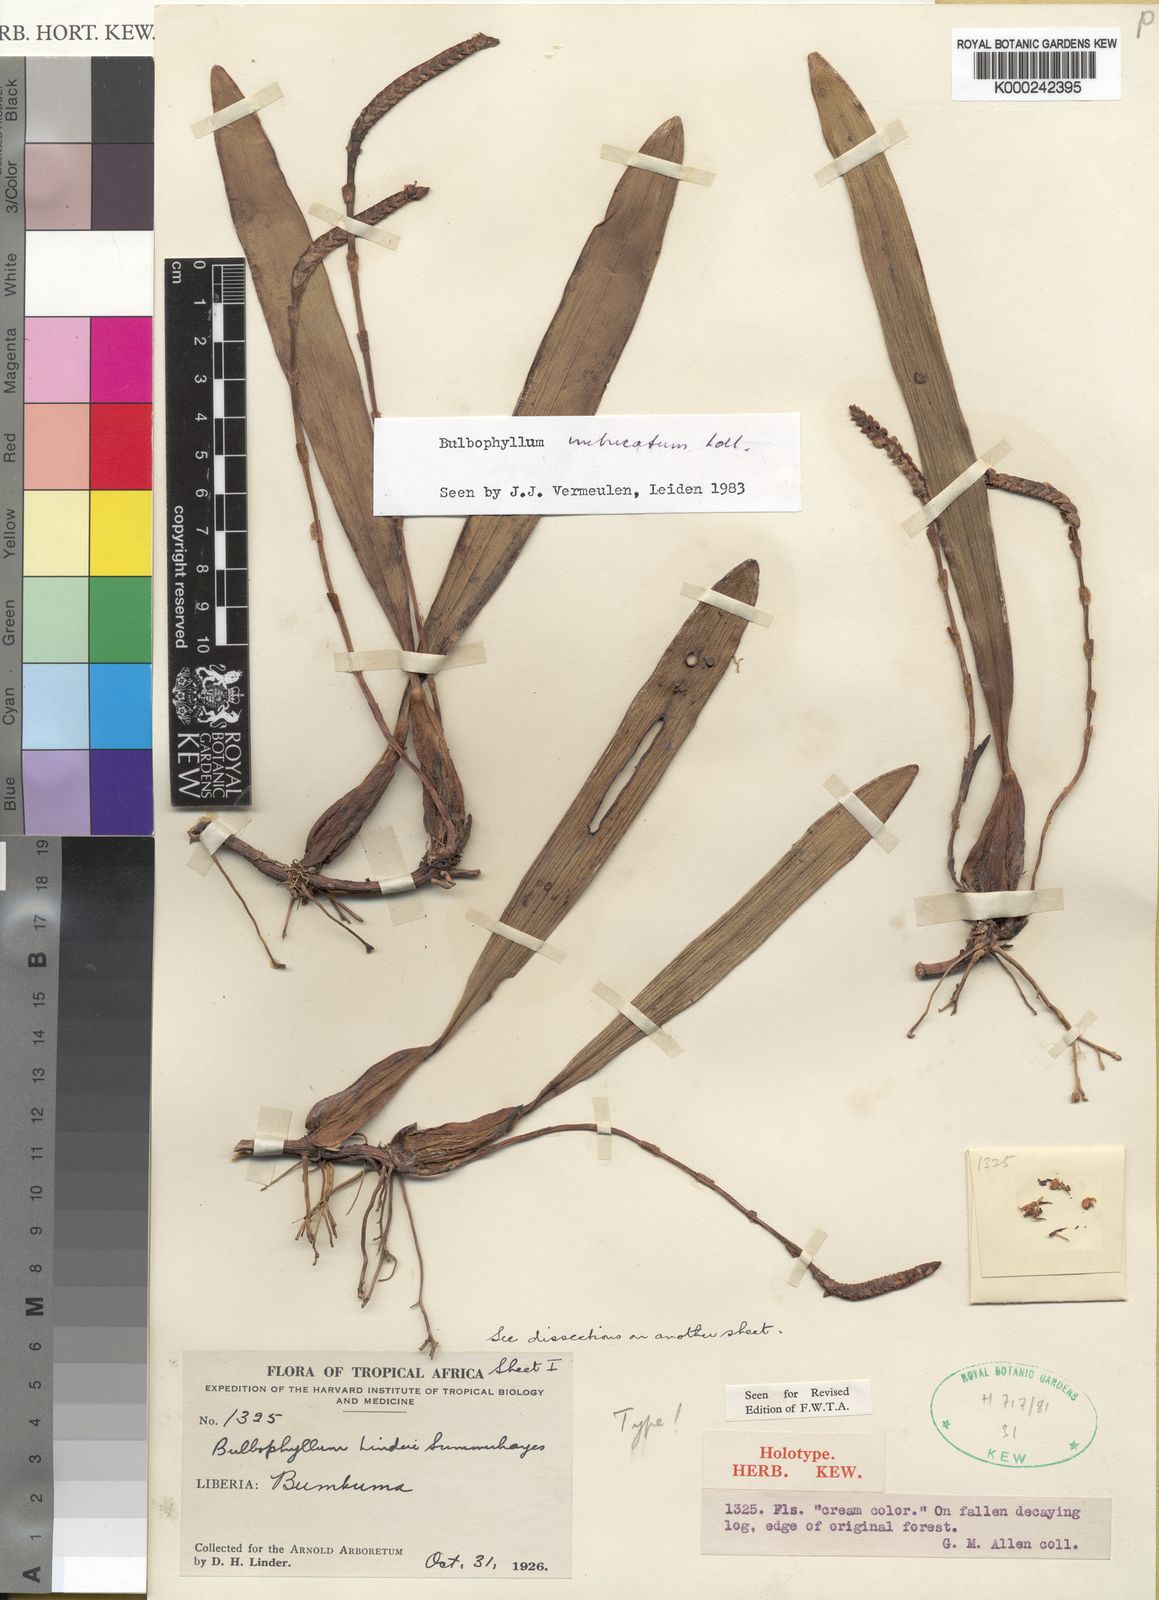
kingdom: Plantae
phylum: Tracheophyta
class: Liliopsida
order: Asparagales
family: Orchidaceae
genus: Bulbophyllum
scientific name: Bulbophyllum leucorhachis
